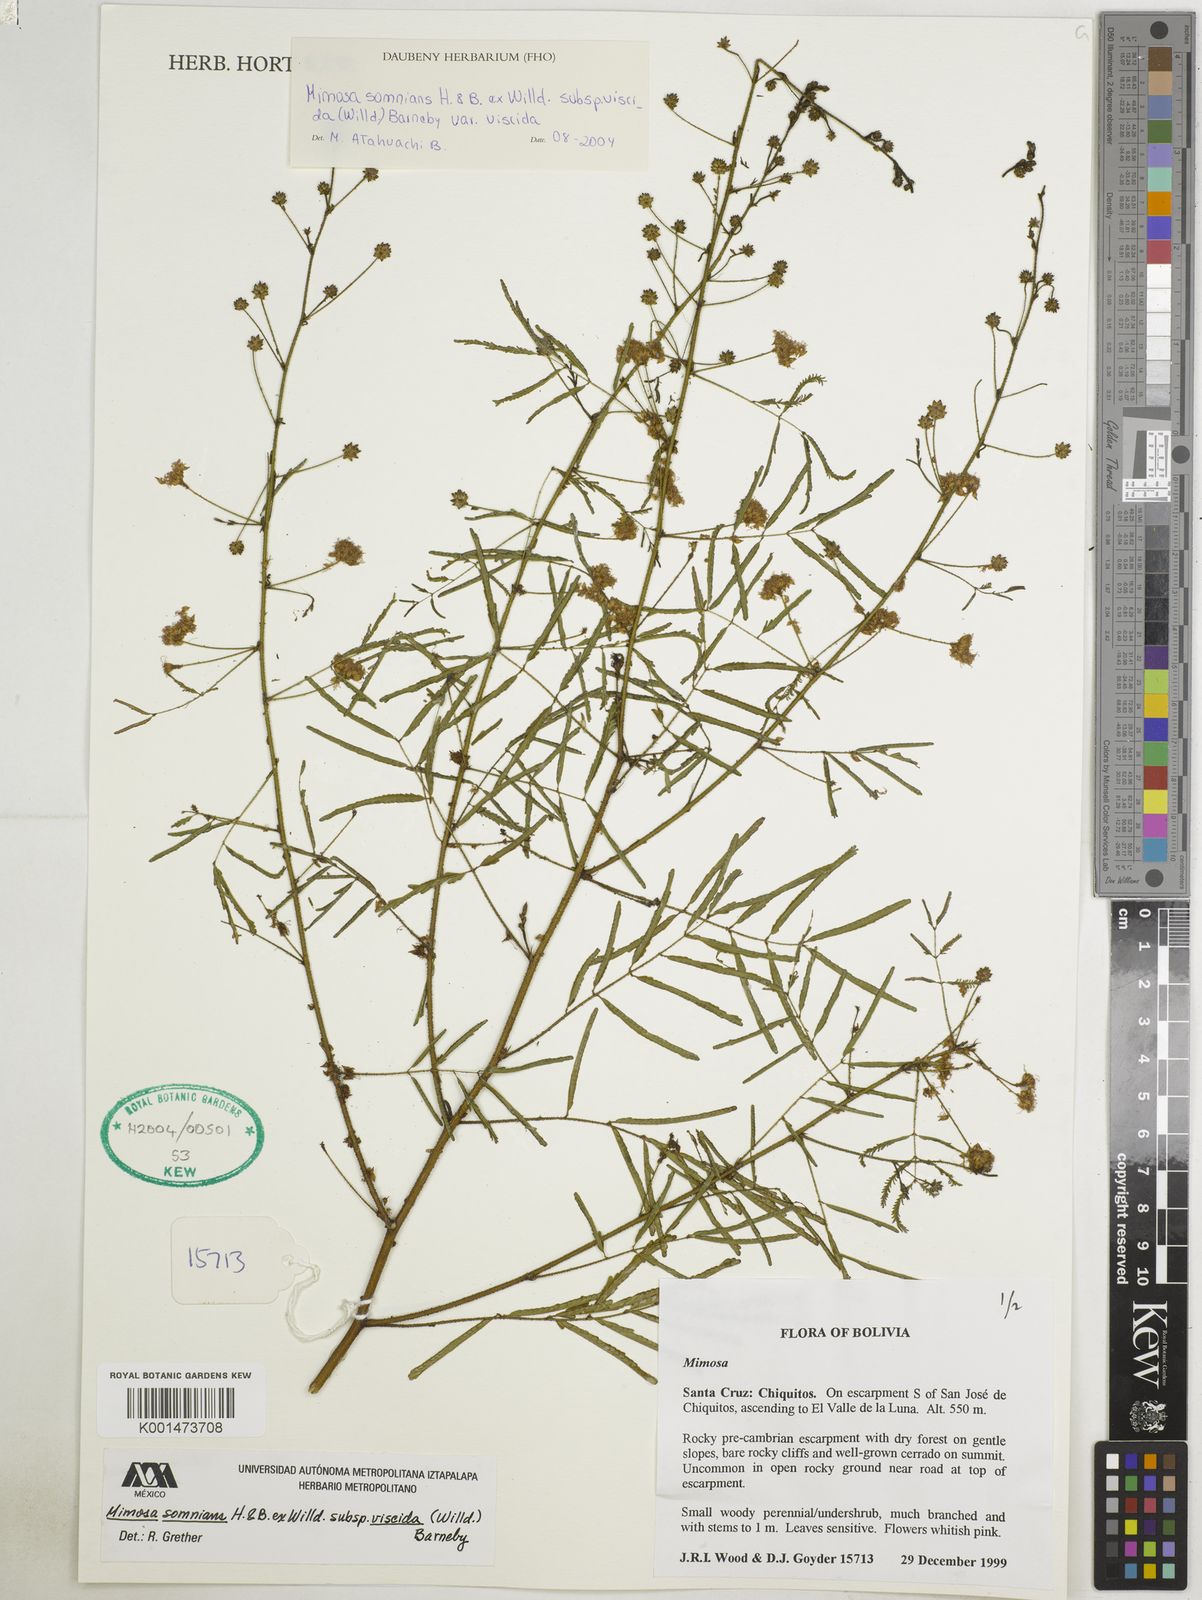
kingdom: Plantae
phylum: Tracheophyta
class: Magnoliopsida
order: Fabales
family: Fabaceae
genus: Mimosa
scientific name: Mimosa somnians
